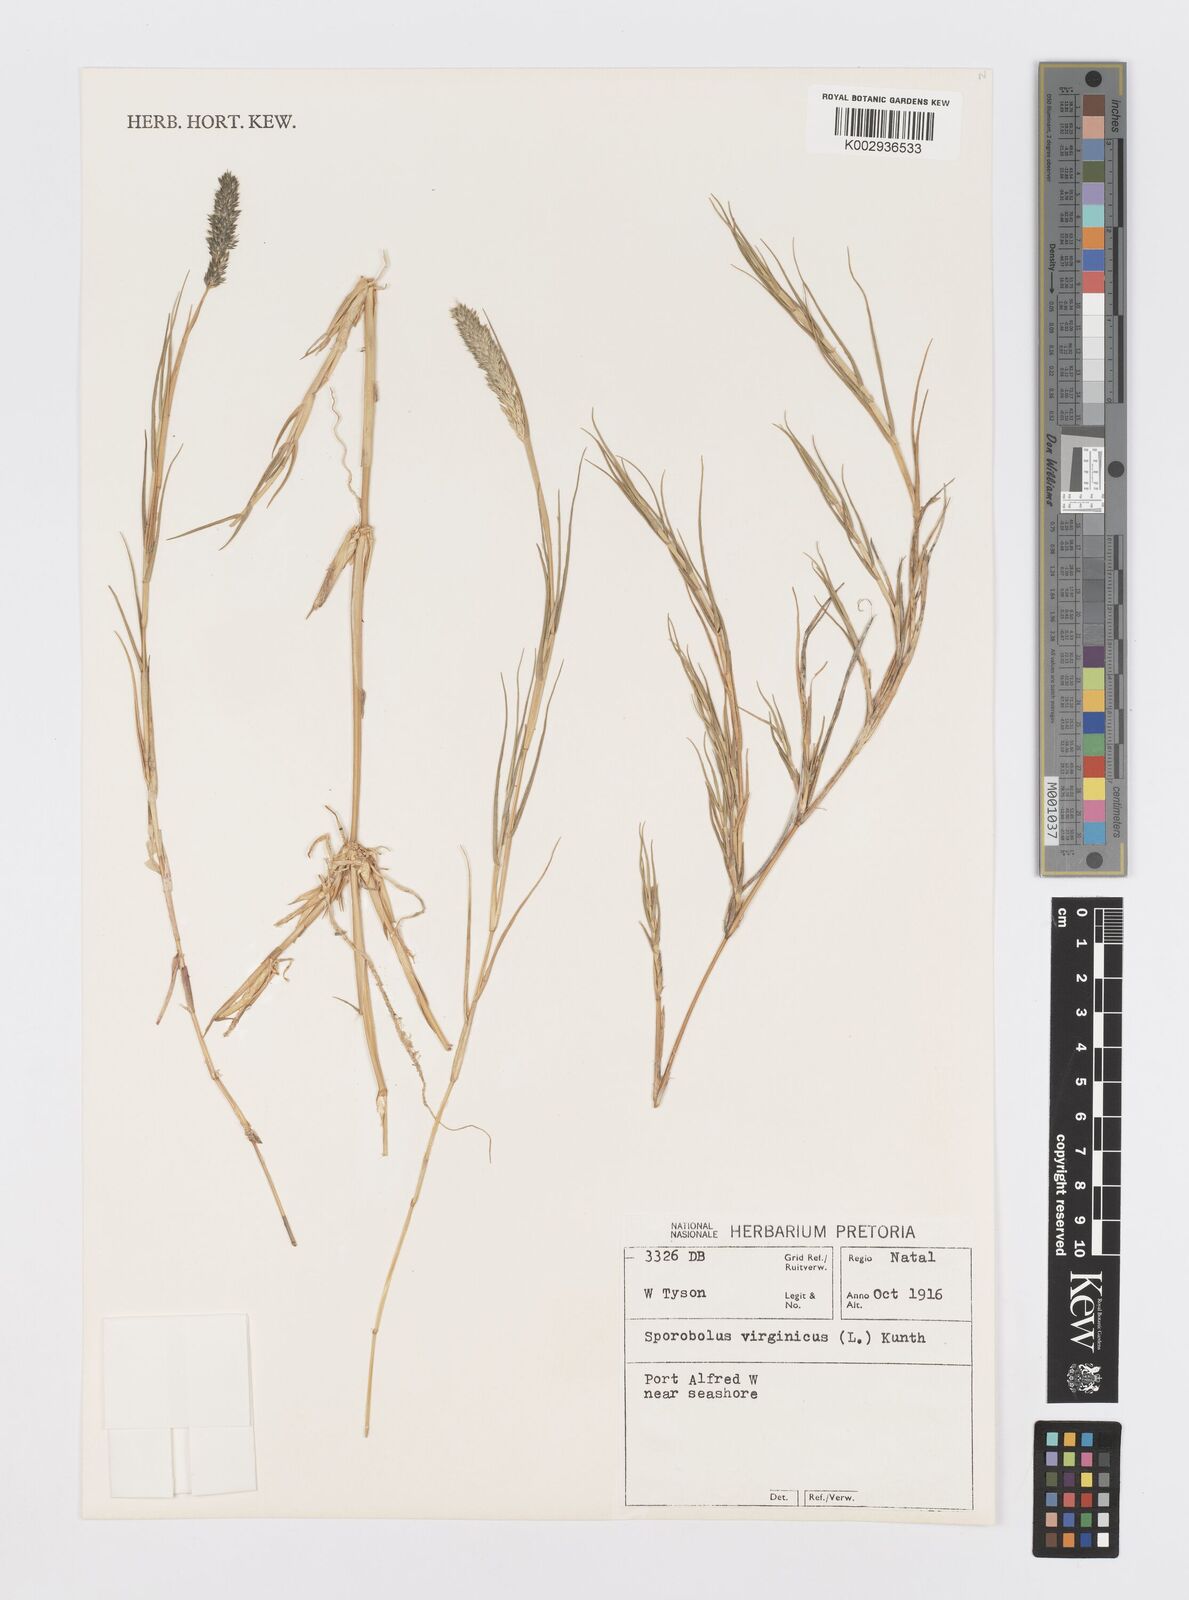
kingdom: Plantae
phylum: Tracheophyta
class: Liliopsida
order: Poales
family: Poaceae
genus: Sporobolus
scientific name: Sporobolus virginicus
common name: Beach dropseed
